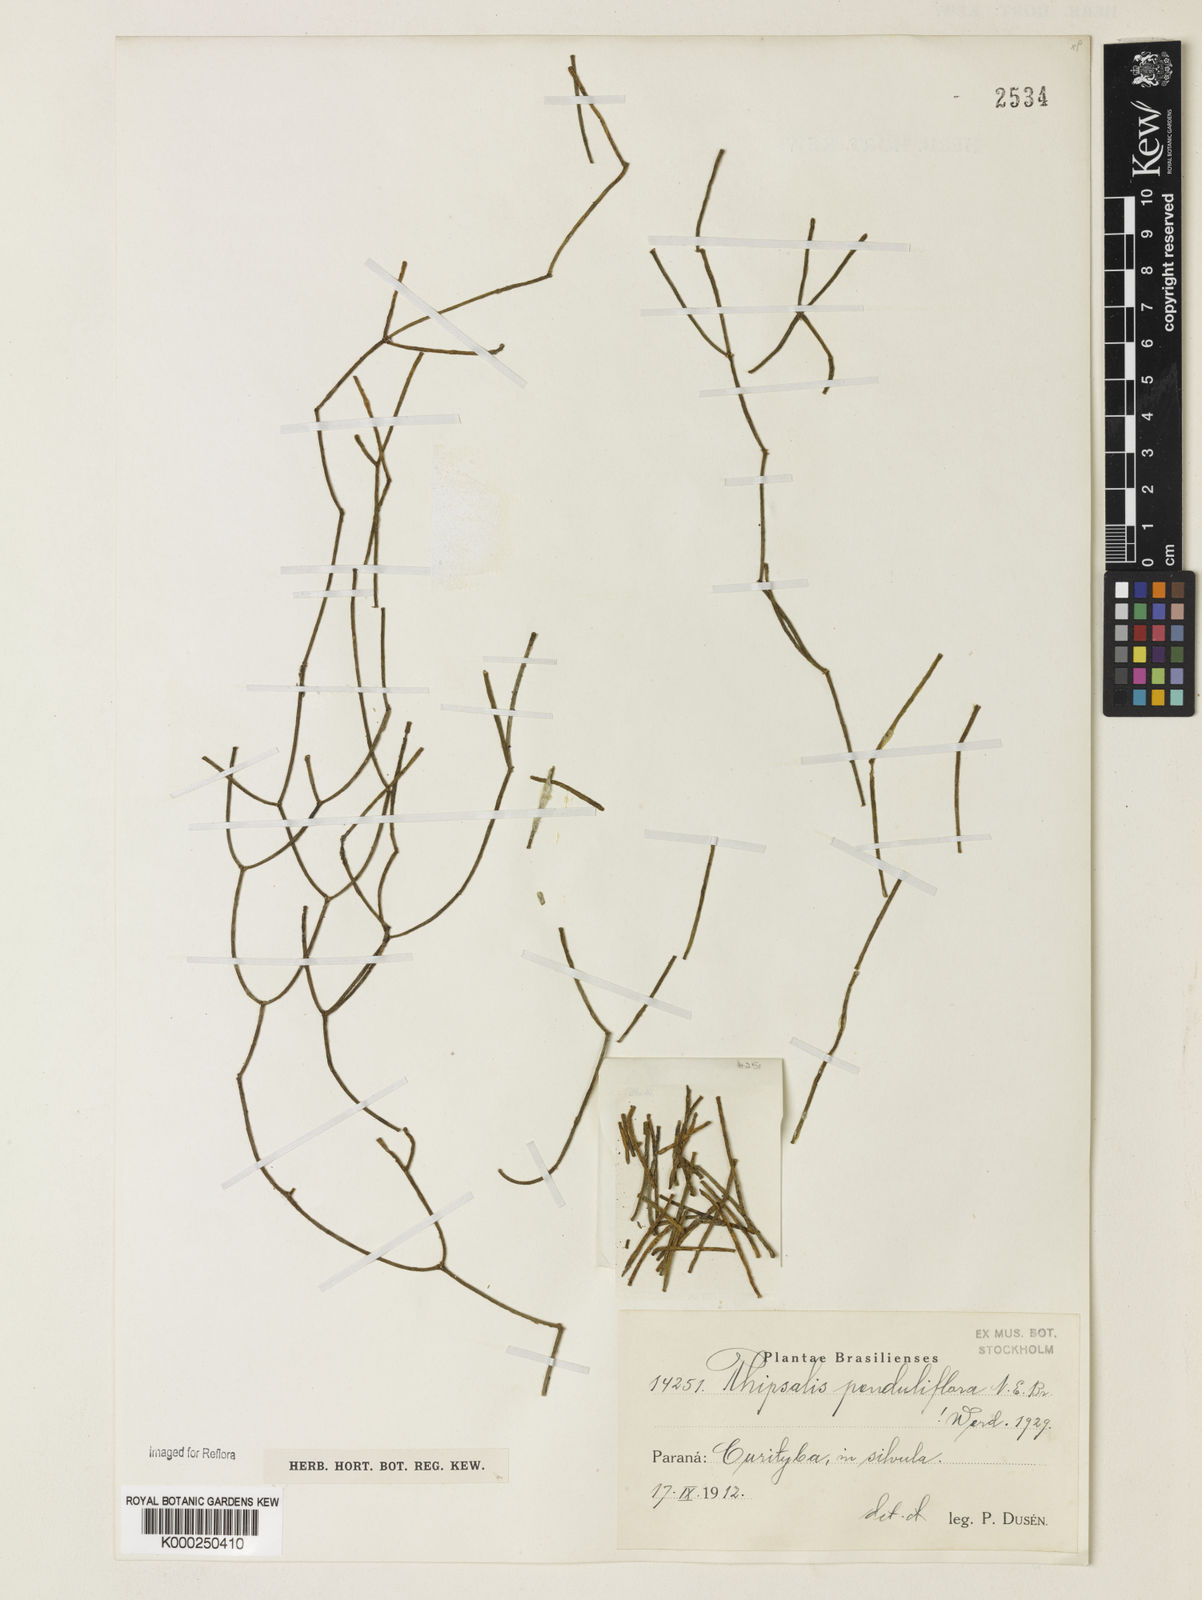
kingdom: Plantae
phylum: Tracheophyta
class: Magnoliopsida
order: Caryophyllales
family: Cactaceae
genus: Rhipsalis
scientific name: Rhipsalis
